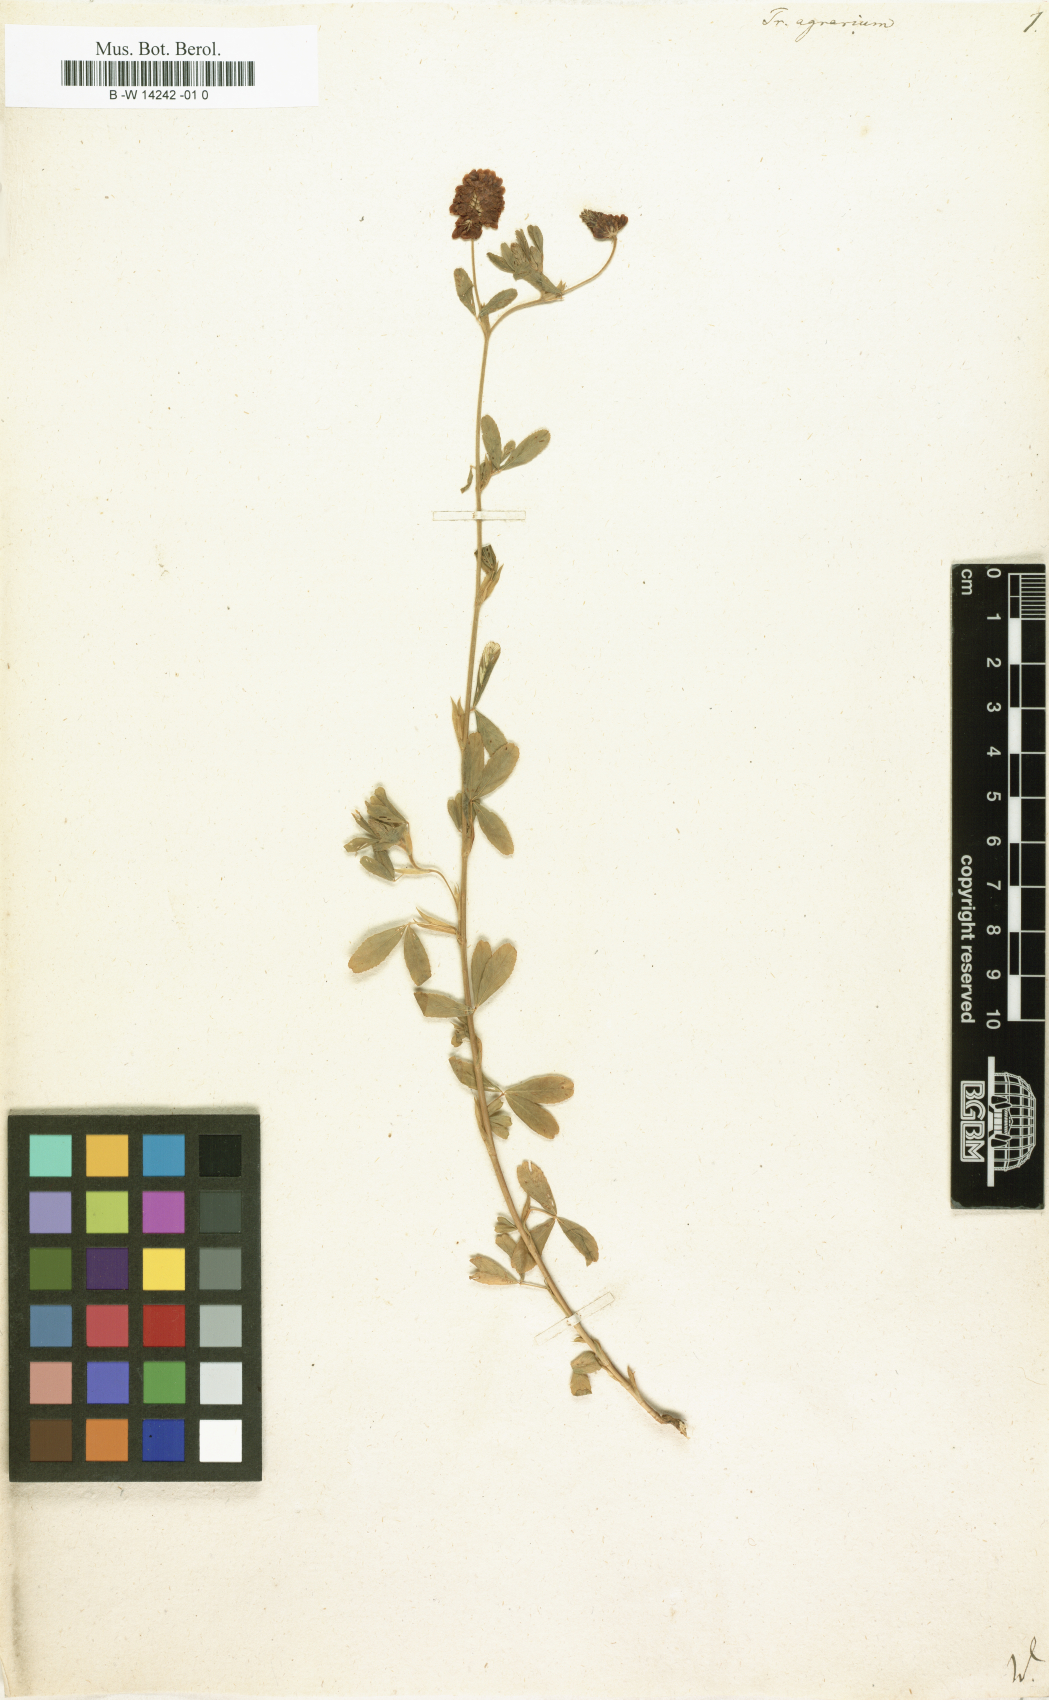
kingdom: Plantae
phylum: Tracheophyta
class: Magnoliopsida
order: Fabales
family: Fabaceae
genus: Trifolium
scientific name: Trifolium aureum
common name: Golden clover
